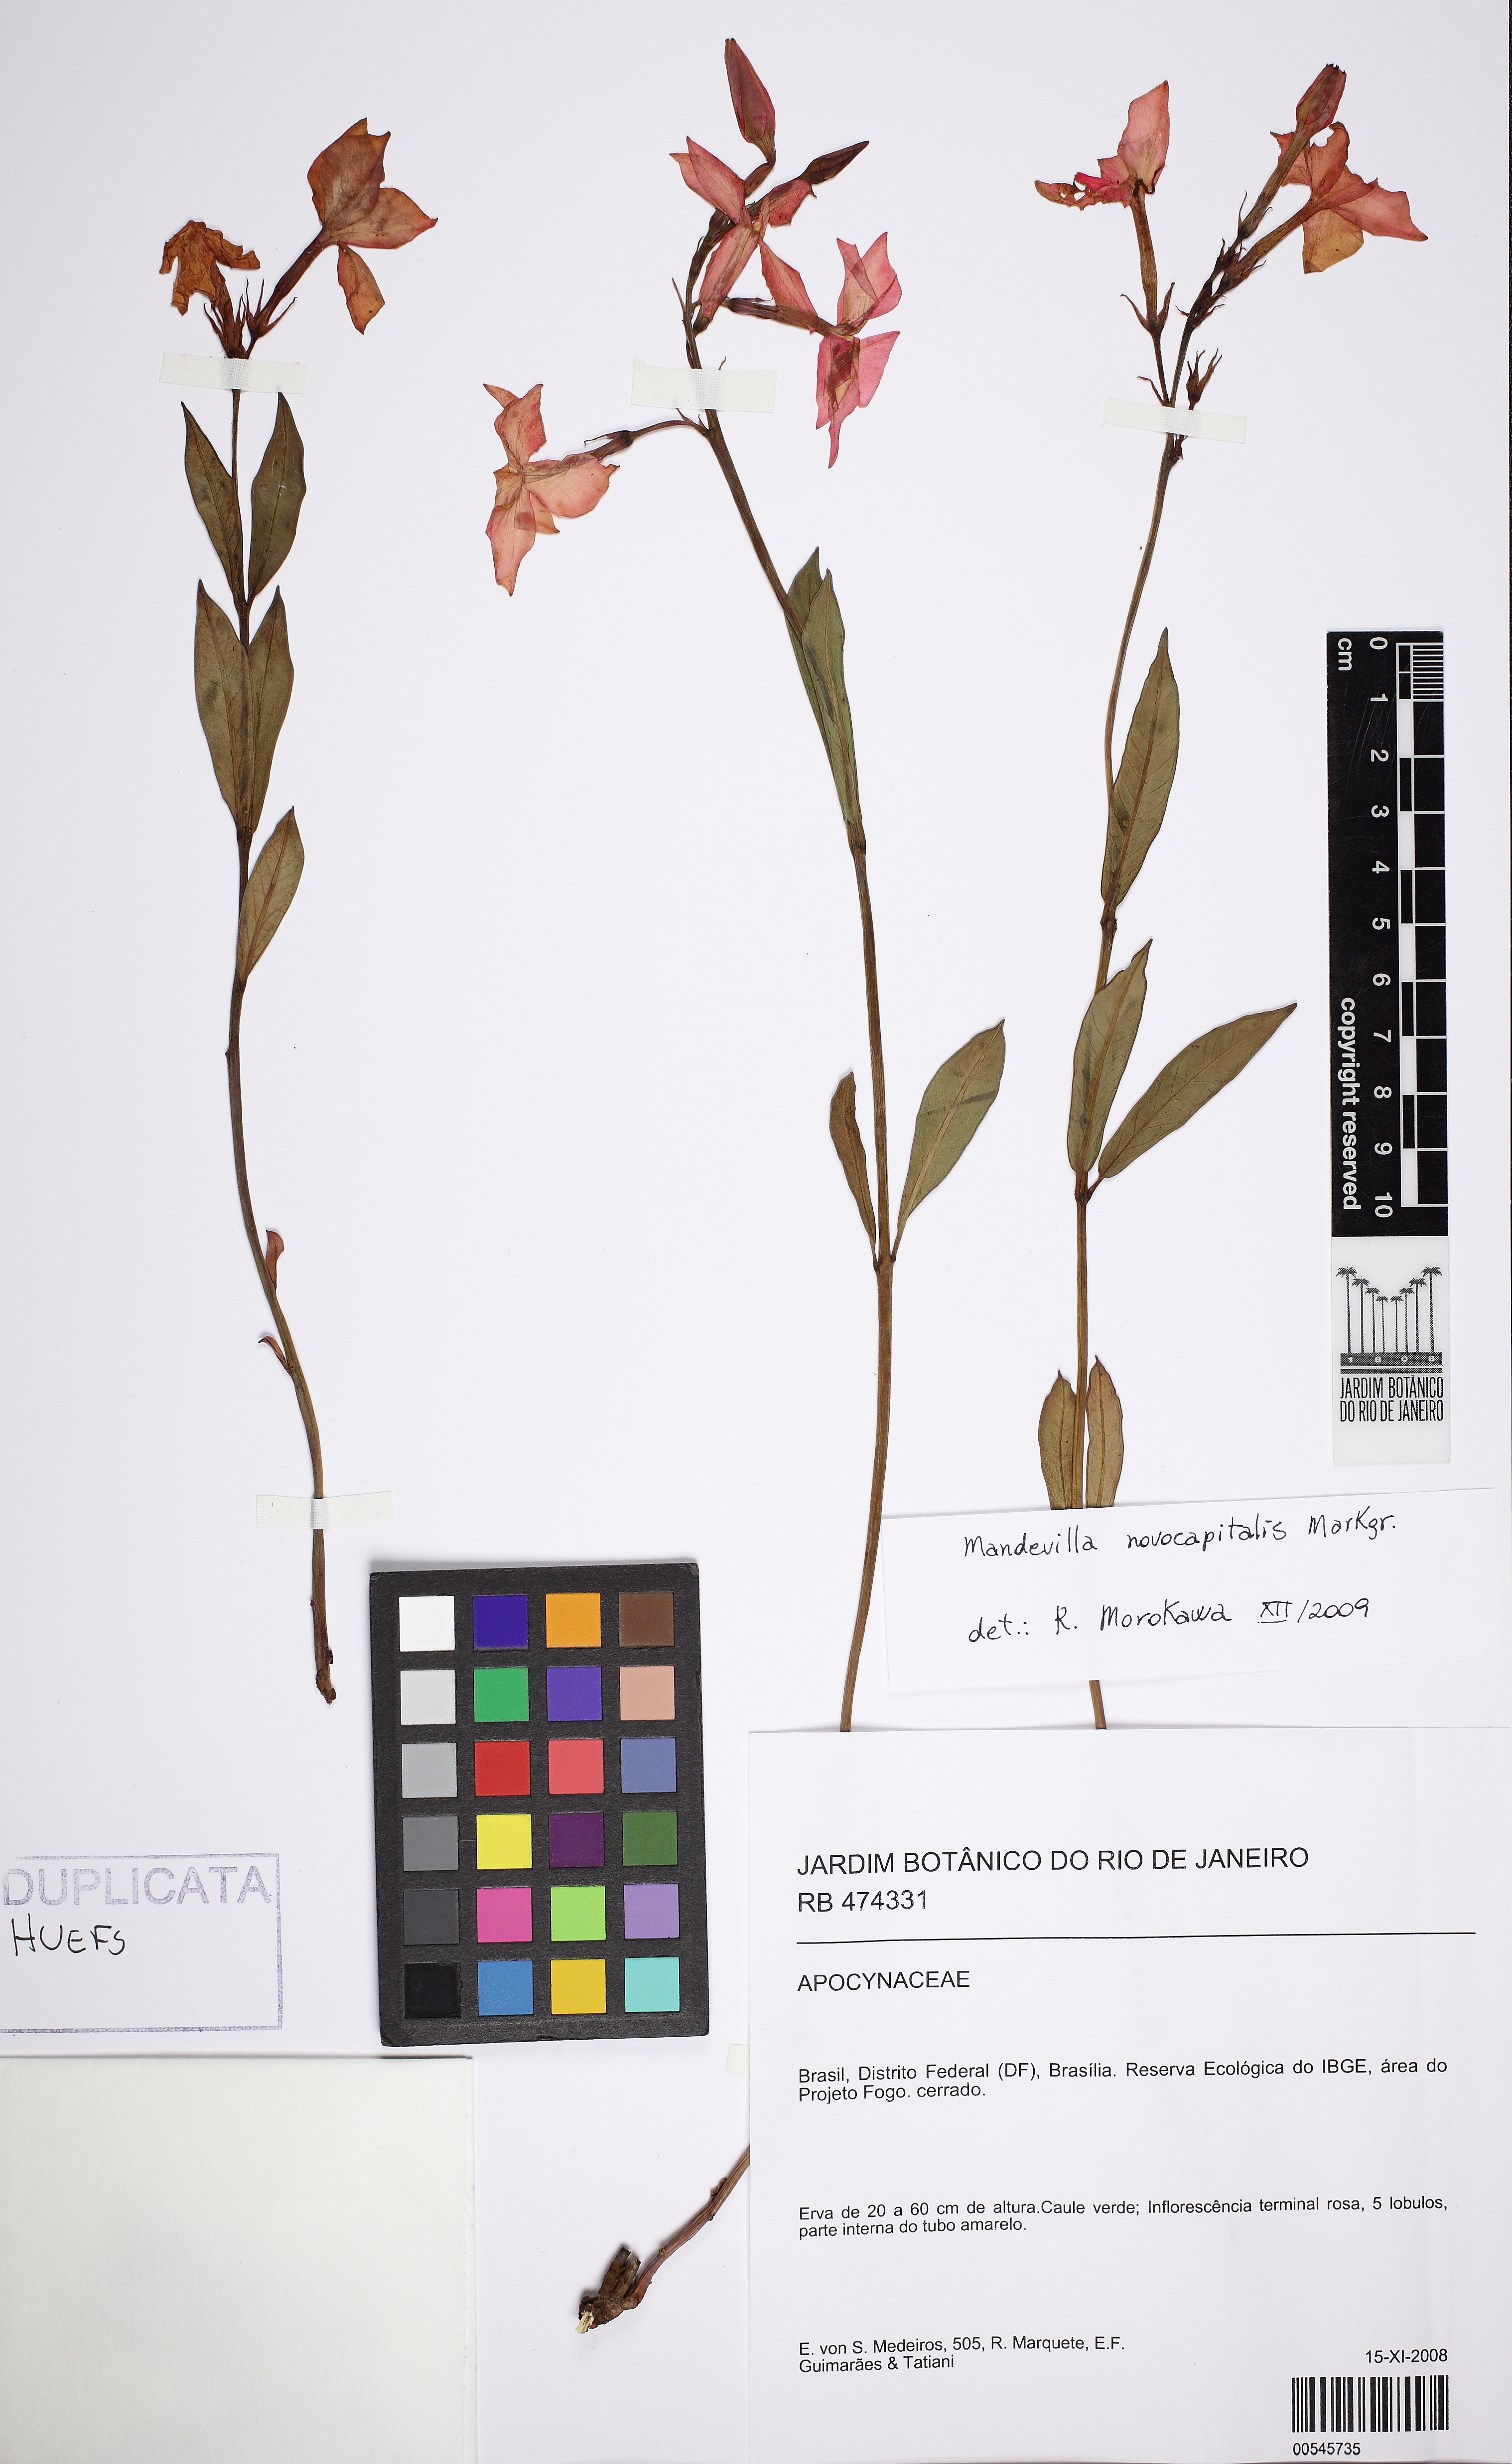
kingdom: Plantae
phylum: Tracheophyta
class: Magnoliopsida
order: Gentianales
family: Apocynaceae
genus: Mandevilla
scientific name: Mandevilla novocapitalis
